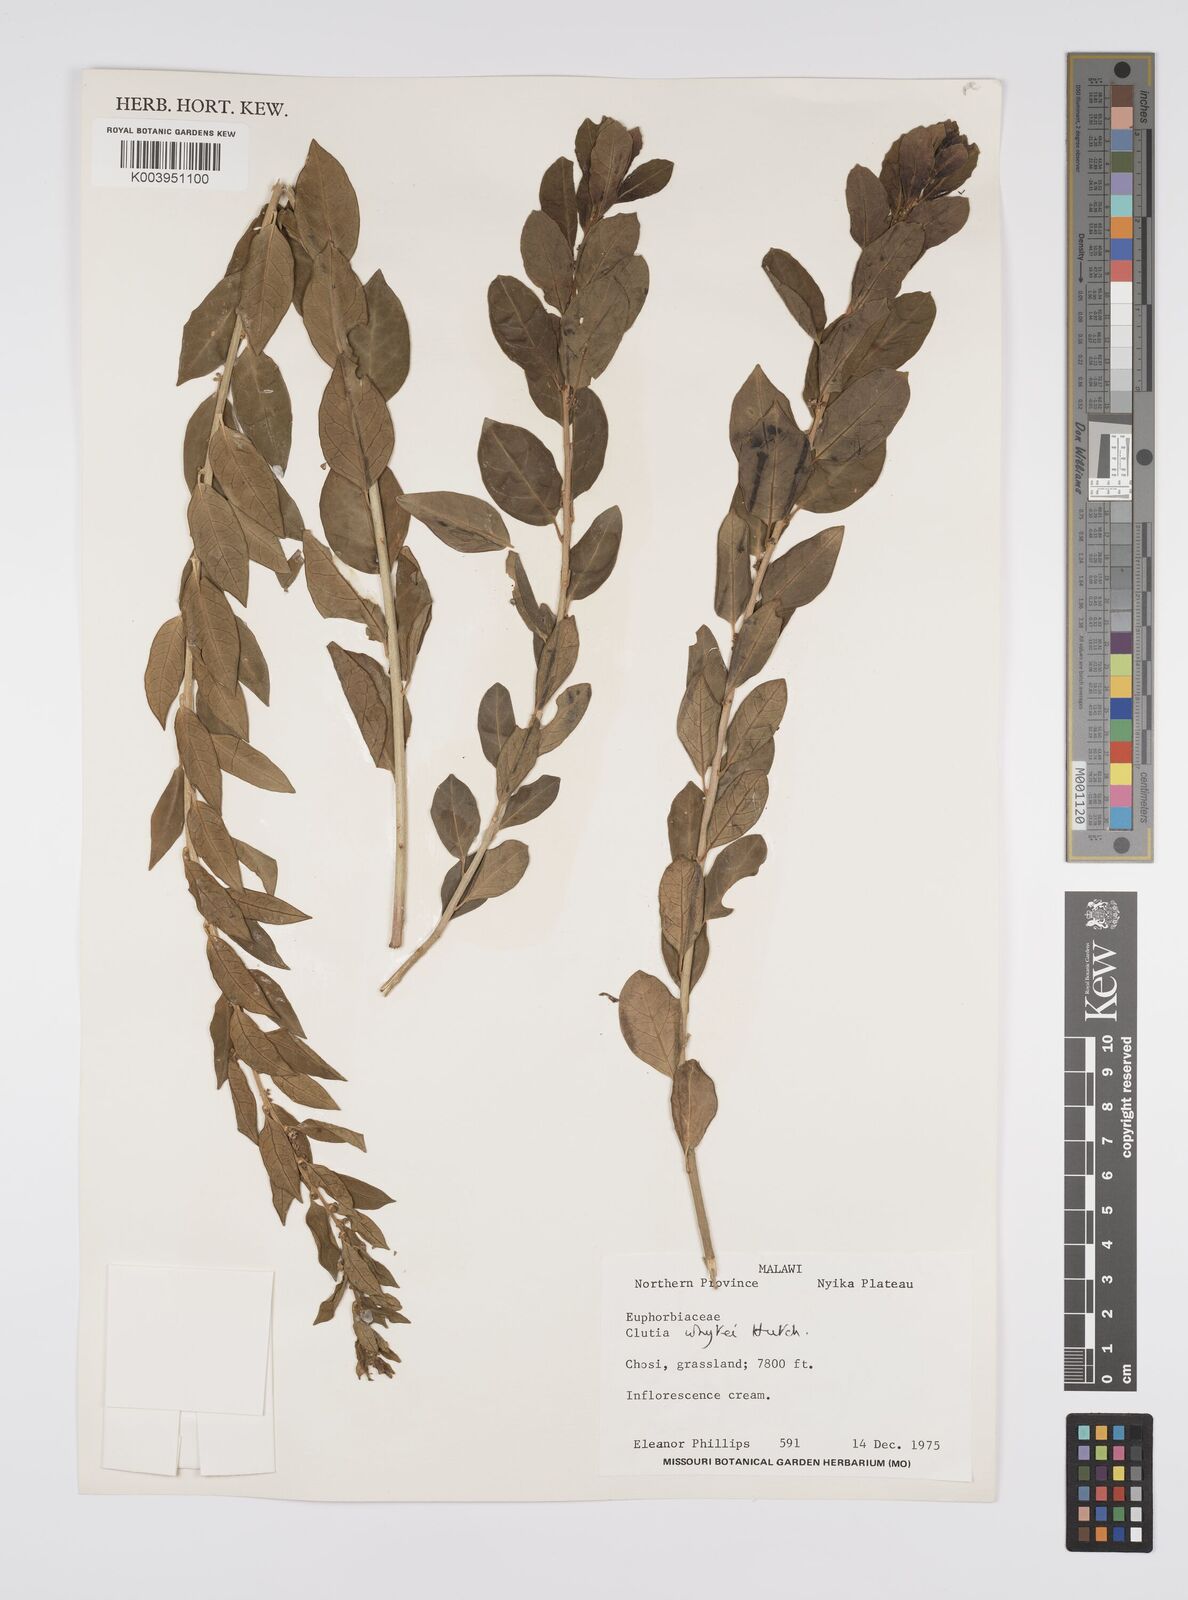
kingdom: Plantae
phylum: Tracheophyta
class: Magnoliopsida
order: Malpighiales
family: Peraceae
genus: Clutia
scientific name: Clutia whytei
